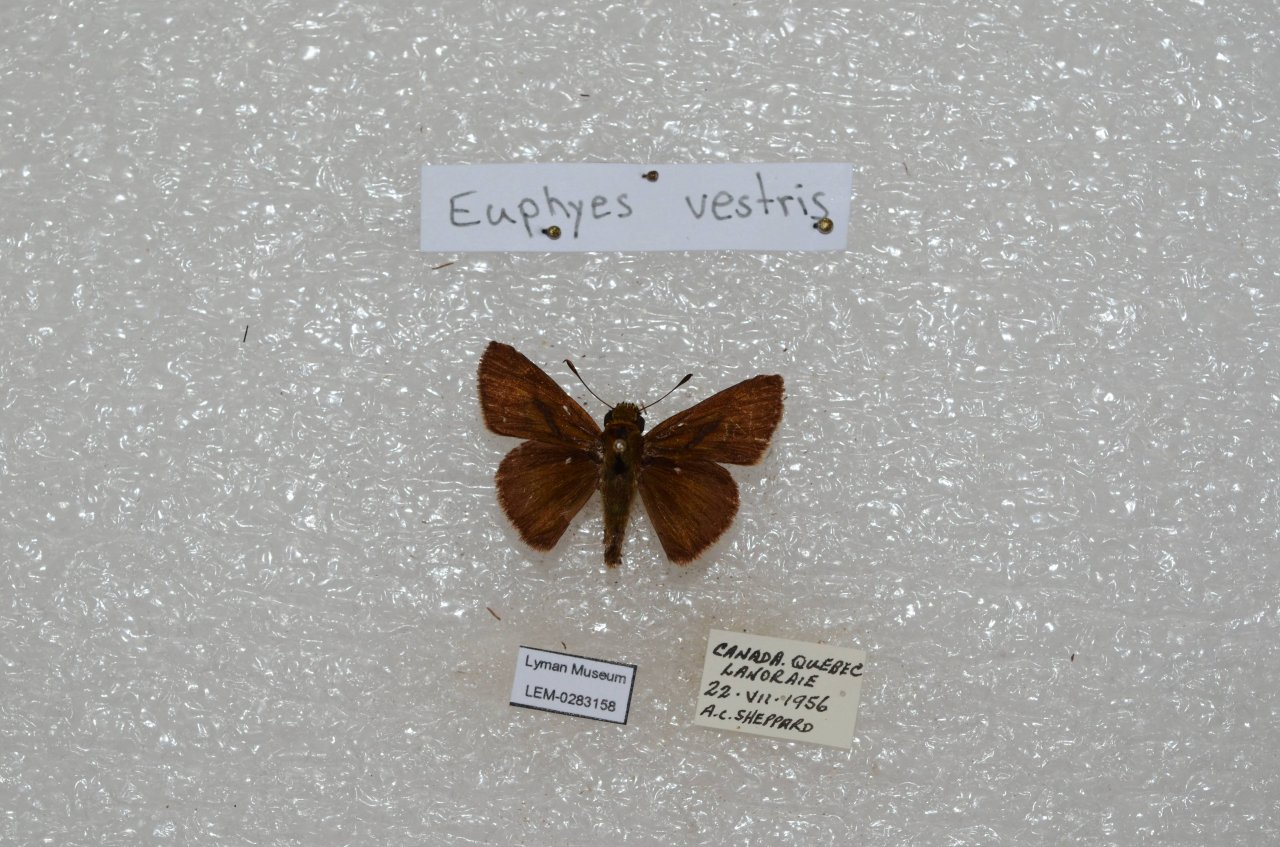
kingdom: Animalia
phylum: Arthropoda
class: Insecta
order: Lepidoptera
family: Hesperiidae
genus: Euphyes
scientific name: Euphyes vestris
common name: Dun Skipper
